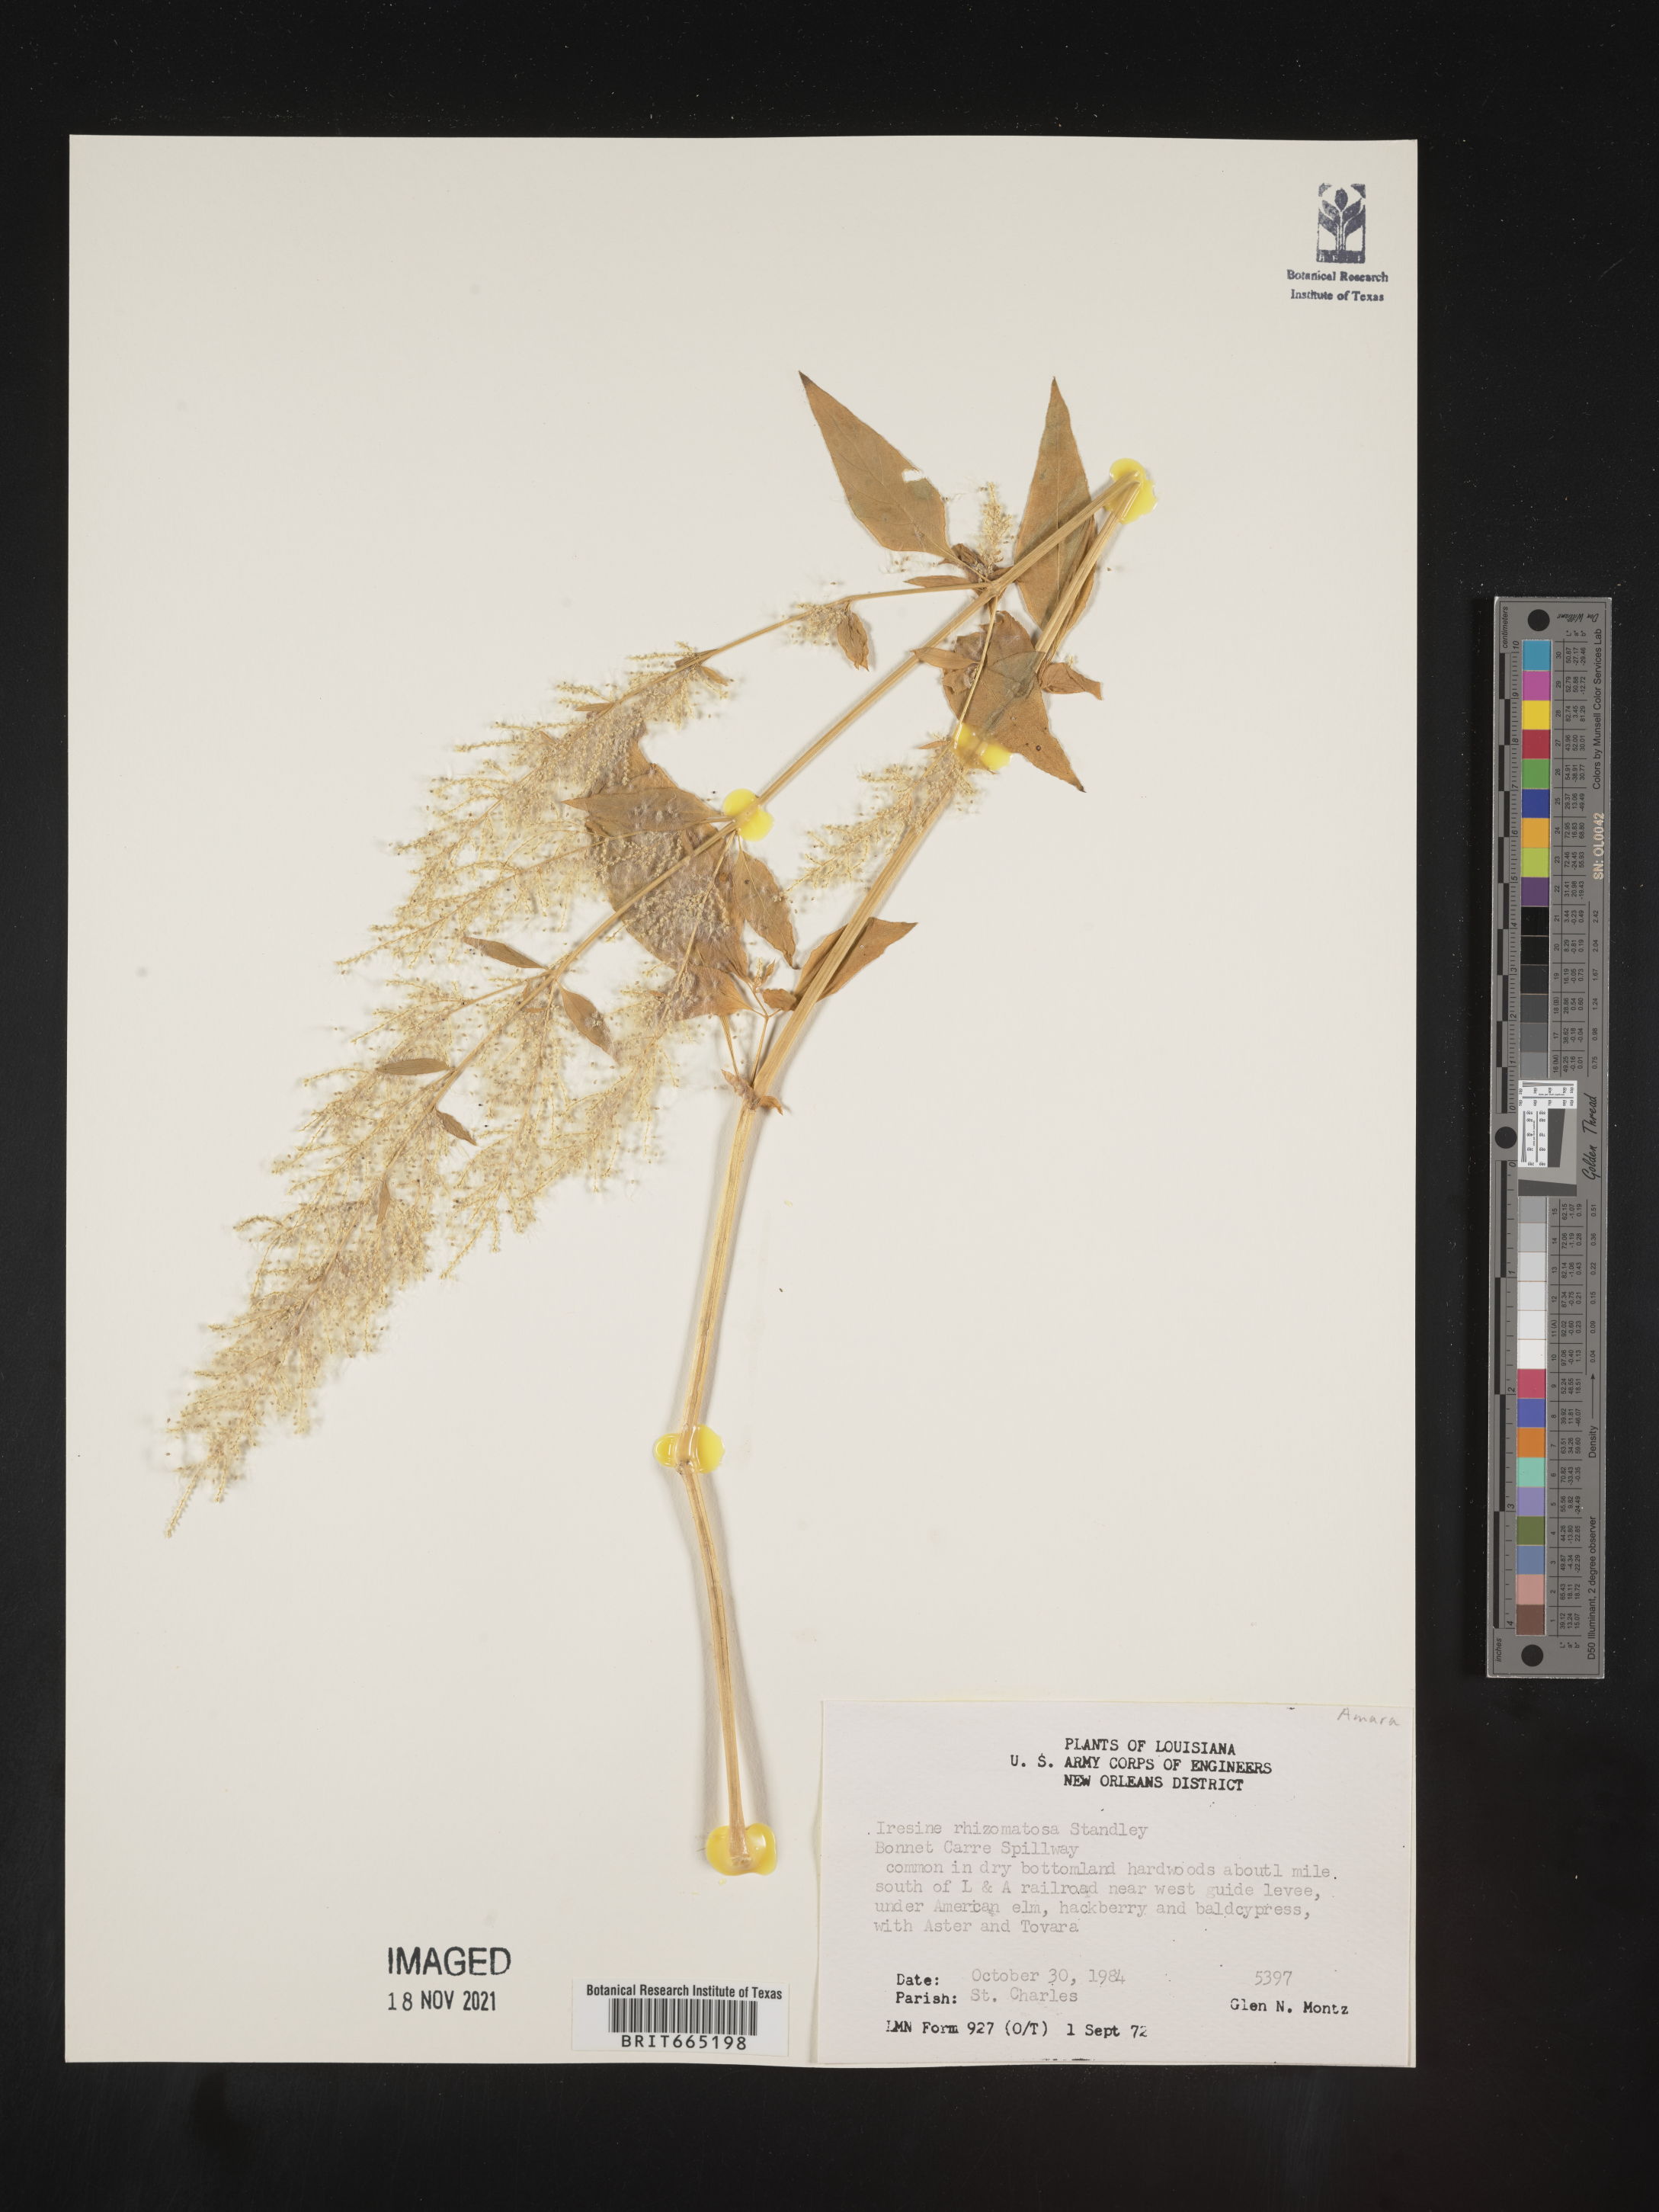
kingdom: Plantae
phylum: Tracheophyta
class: Magnoliopsida
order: Caryophyllales
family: Amaranthaceae
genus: Iresine
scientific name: Iresine rhizomatosa
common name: Juda's-bush
